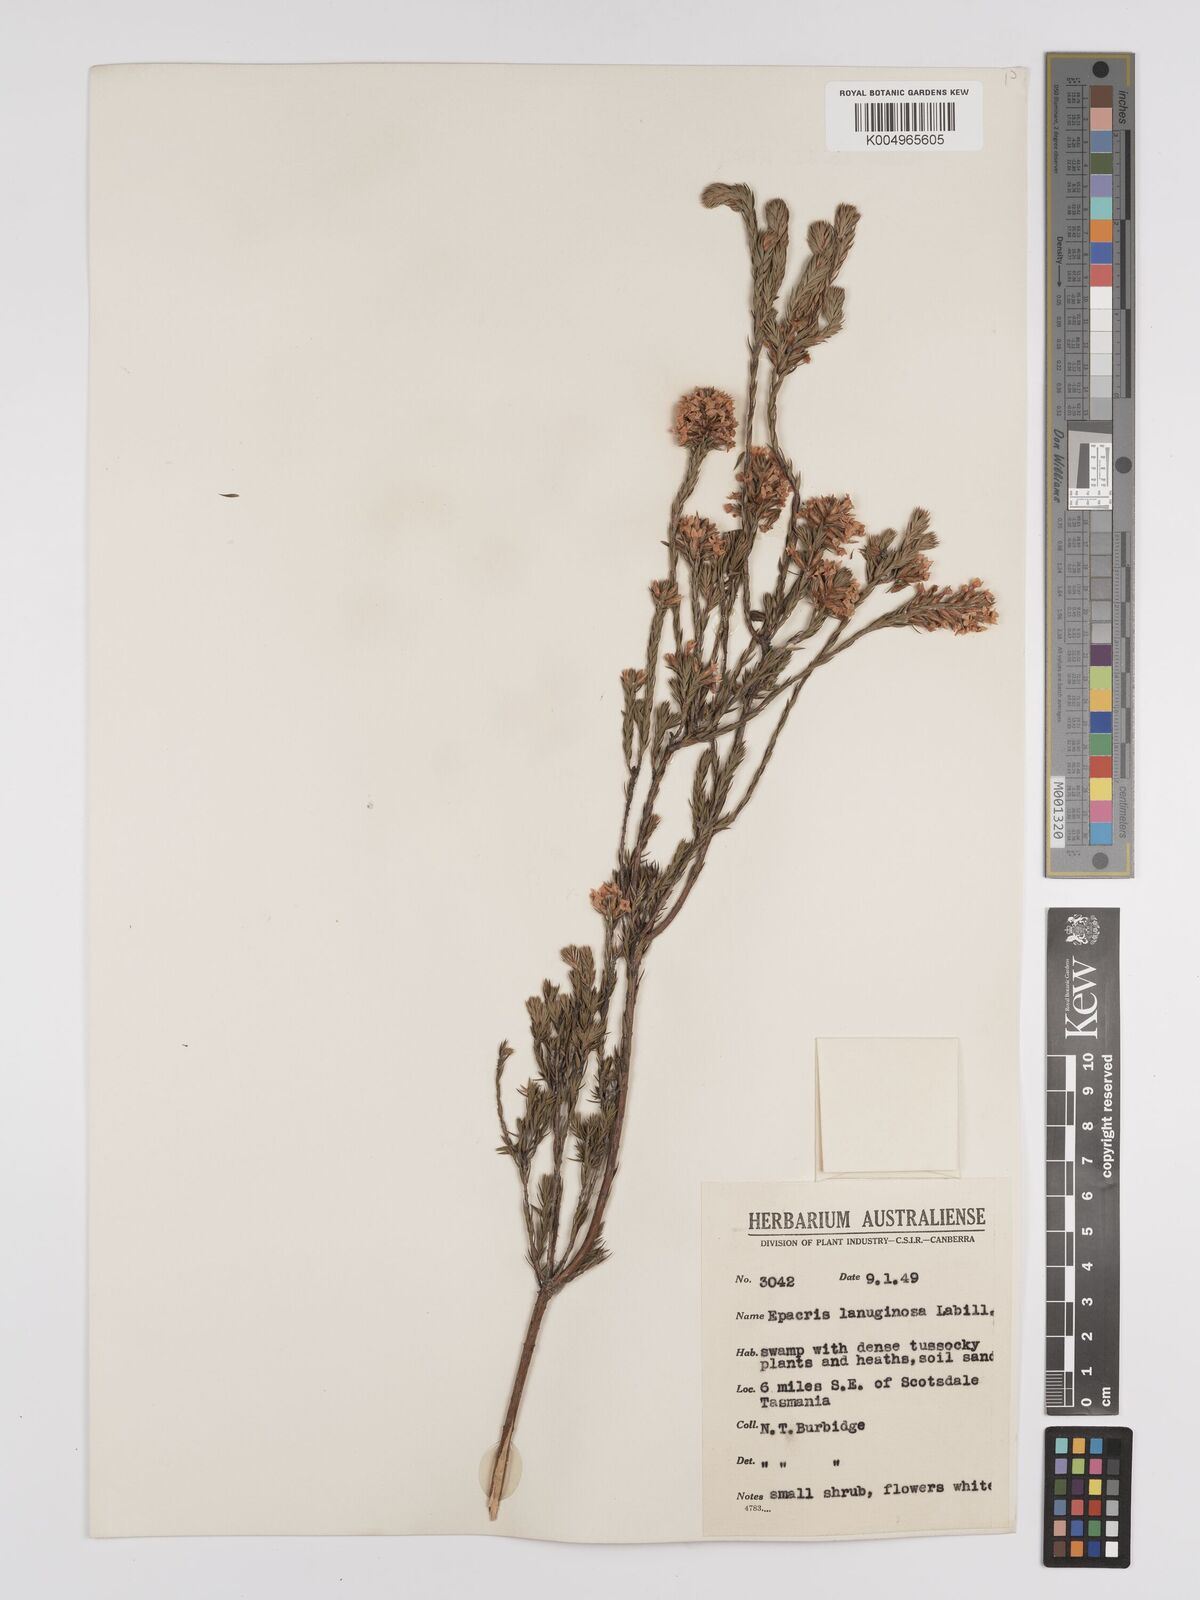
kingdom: Plantae
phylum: Tracheophyta
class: Magnoliopsida
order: Ericales
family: Ericaceae
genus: Epacris
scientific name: Epacris lanuginosa
